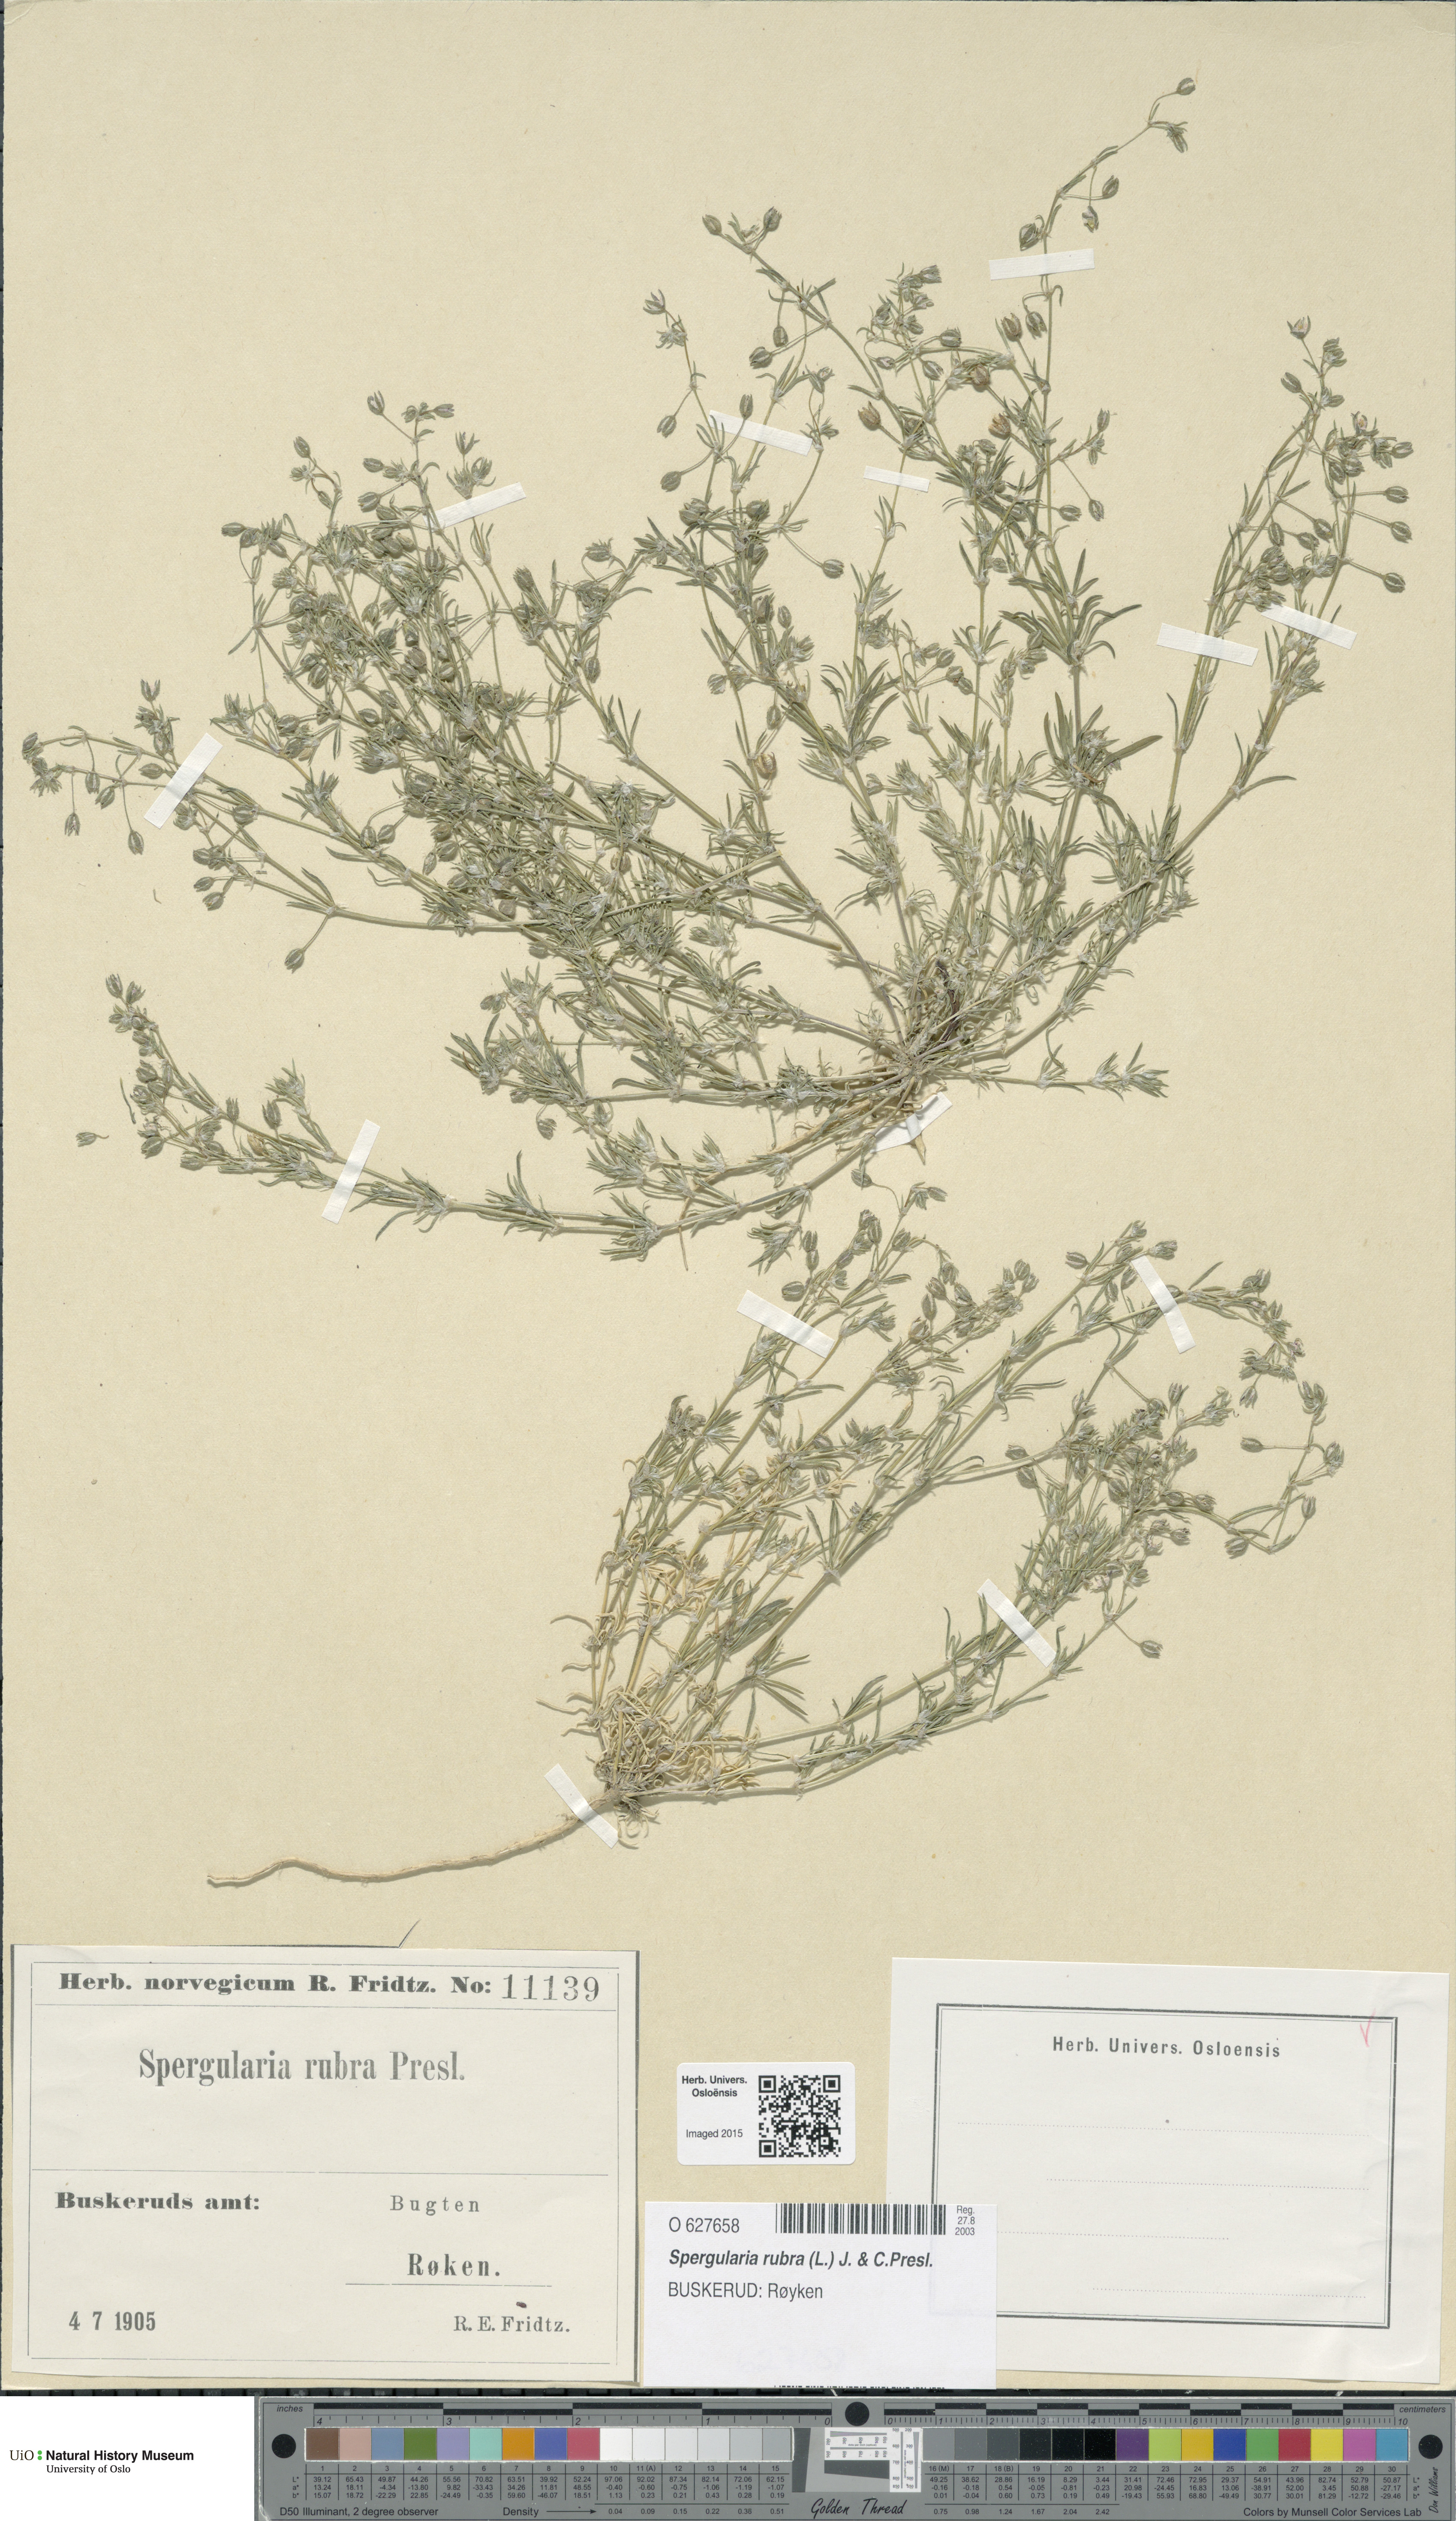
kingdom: Plantae
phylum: Tracheophyta
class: Magnoliopsida
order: Caryophyllales
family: Caryophyllaceae
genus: Spergularia
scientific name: Spergularia rubra
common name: Red sand-spurrey
